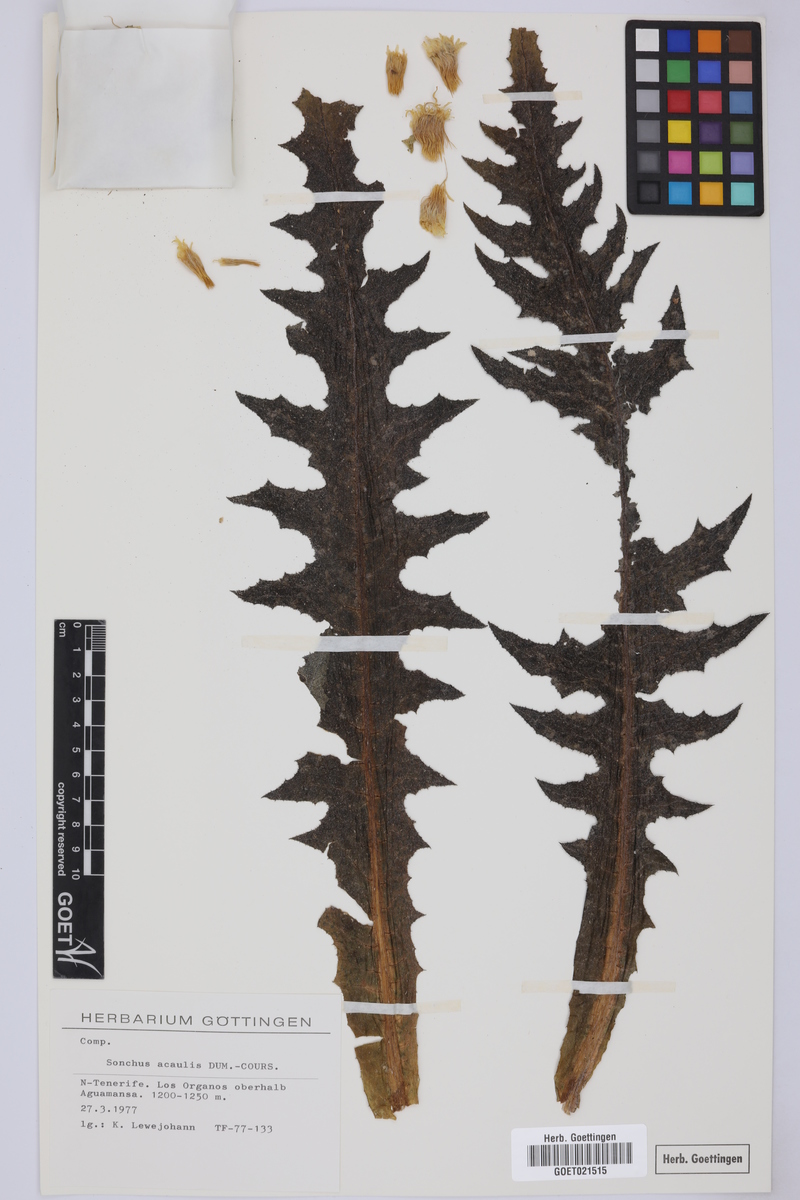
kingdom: Plantae
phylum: Tracheophyta
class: Magnoliopsida
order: Asterales
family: Asteraceae
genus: Sonchus
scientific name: Sonchus acaulis
